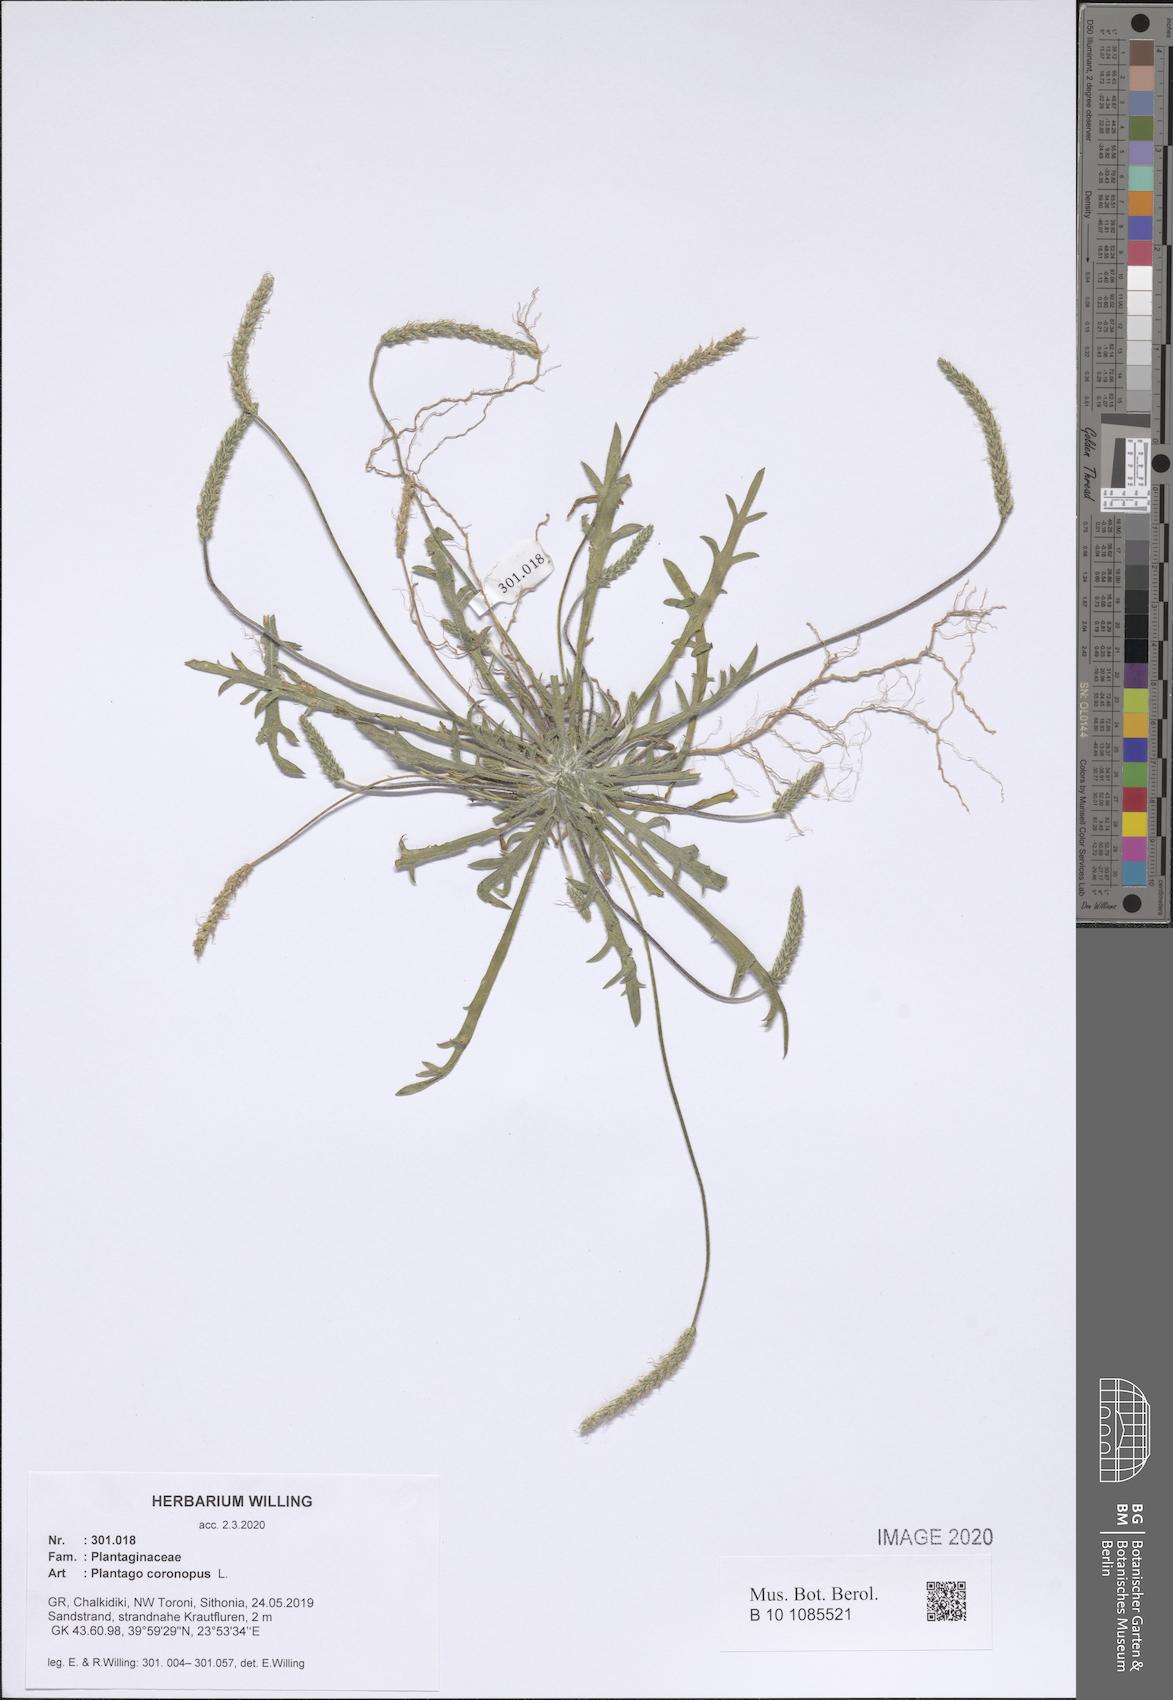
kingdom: Plantae
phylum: Tracheophyta
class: Magnoliopsida
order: Lamiales
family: Plantaginaceae
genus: Plantago
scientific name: Plantago coronopus
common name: Buck's-horn plantain
